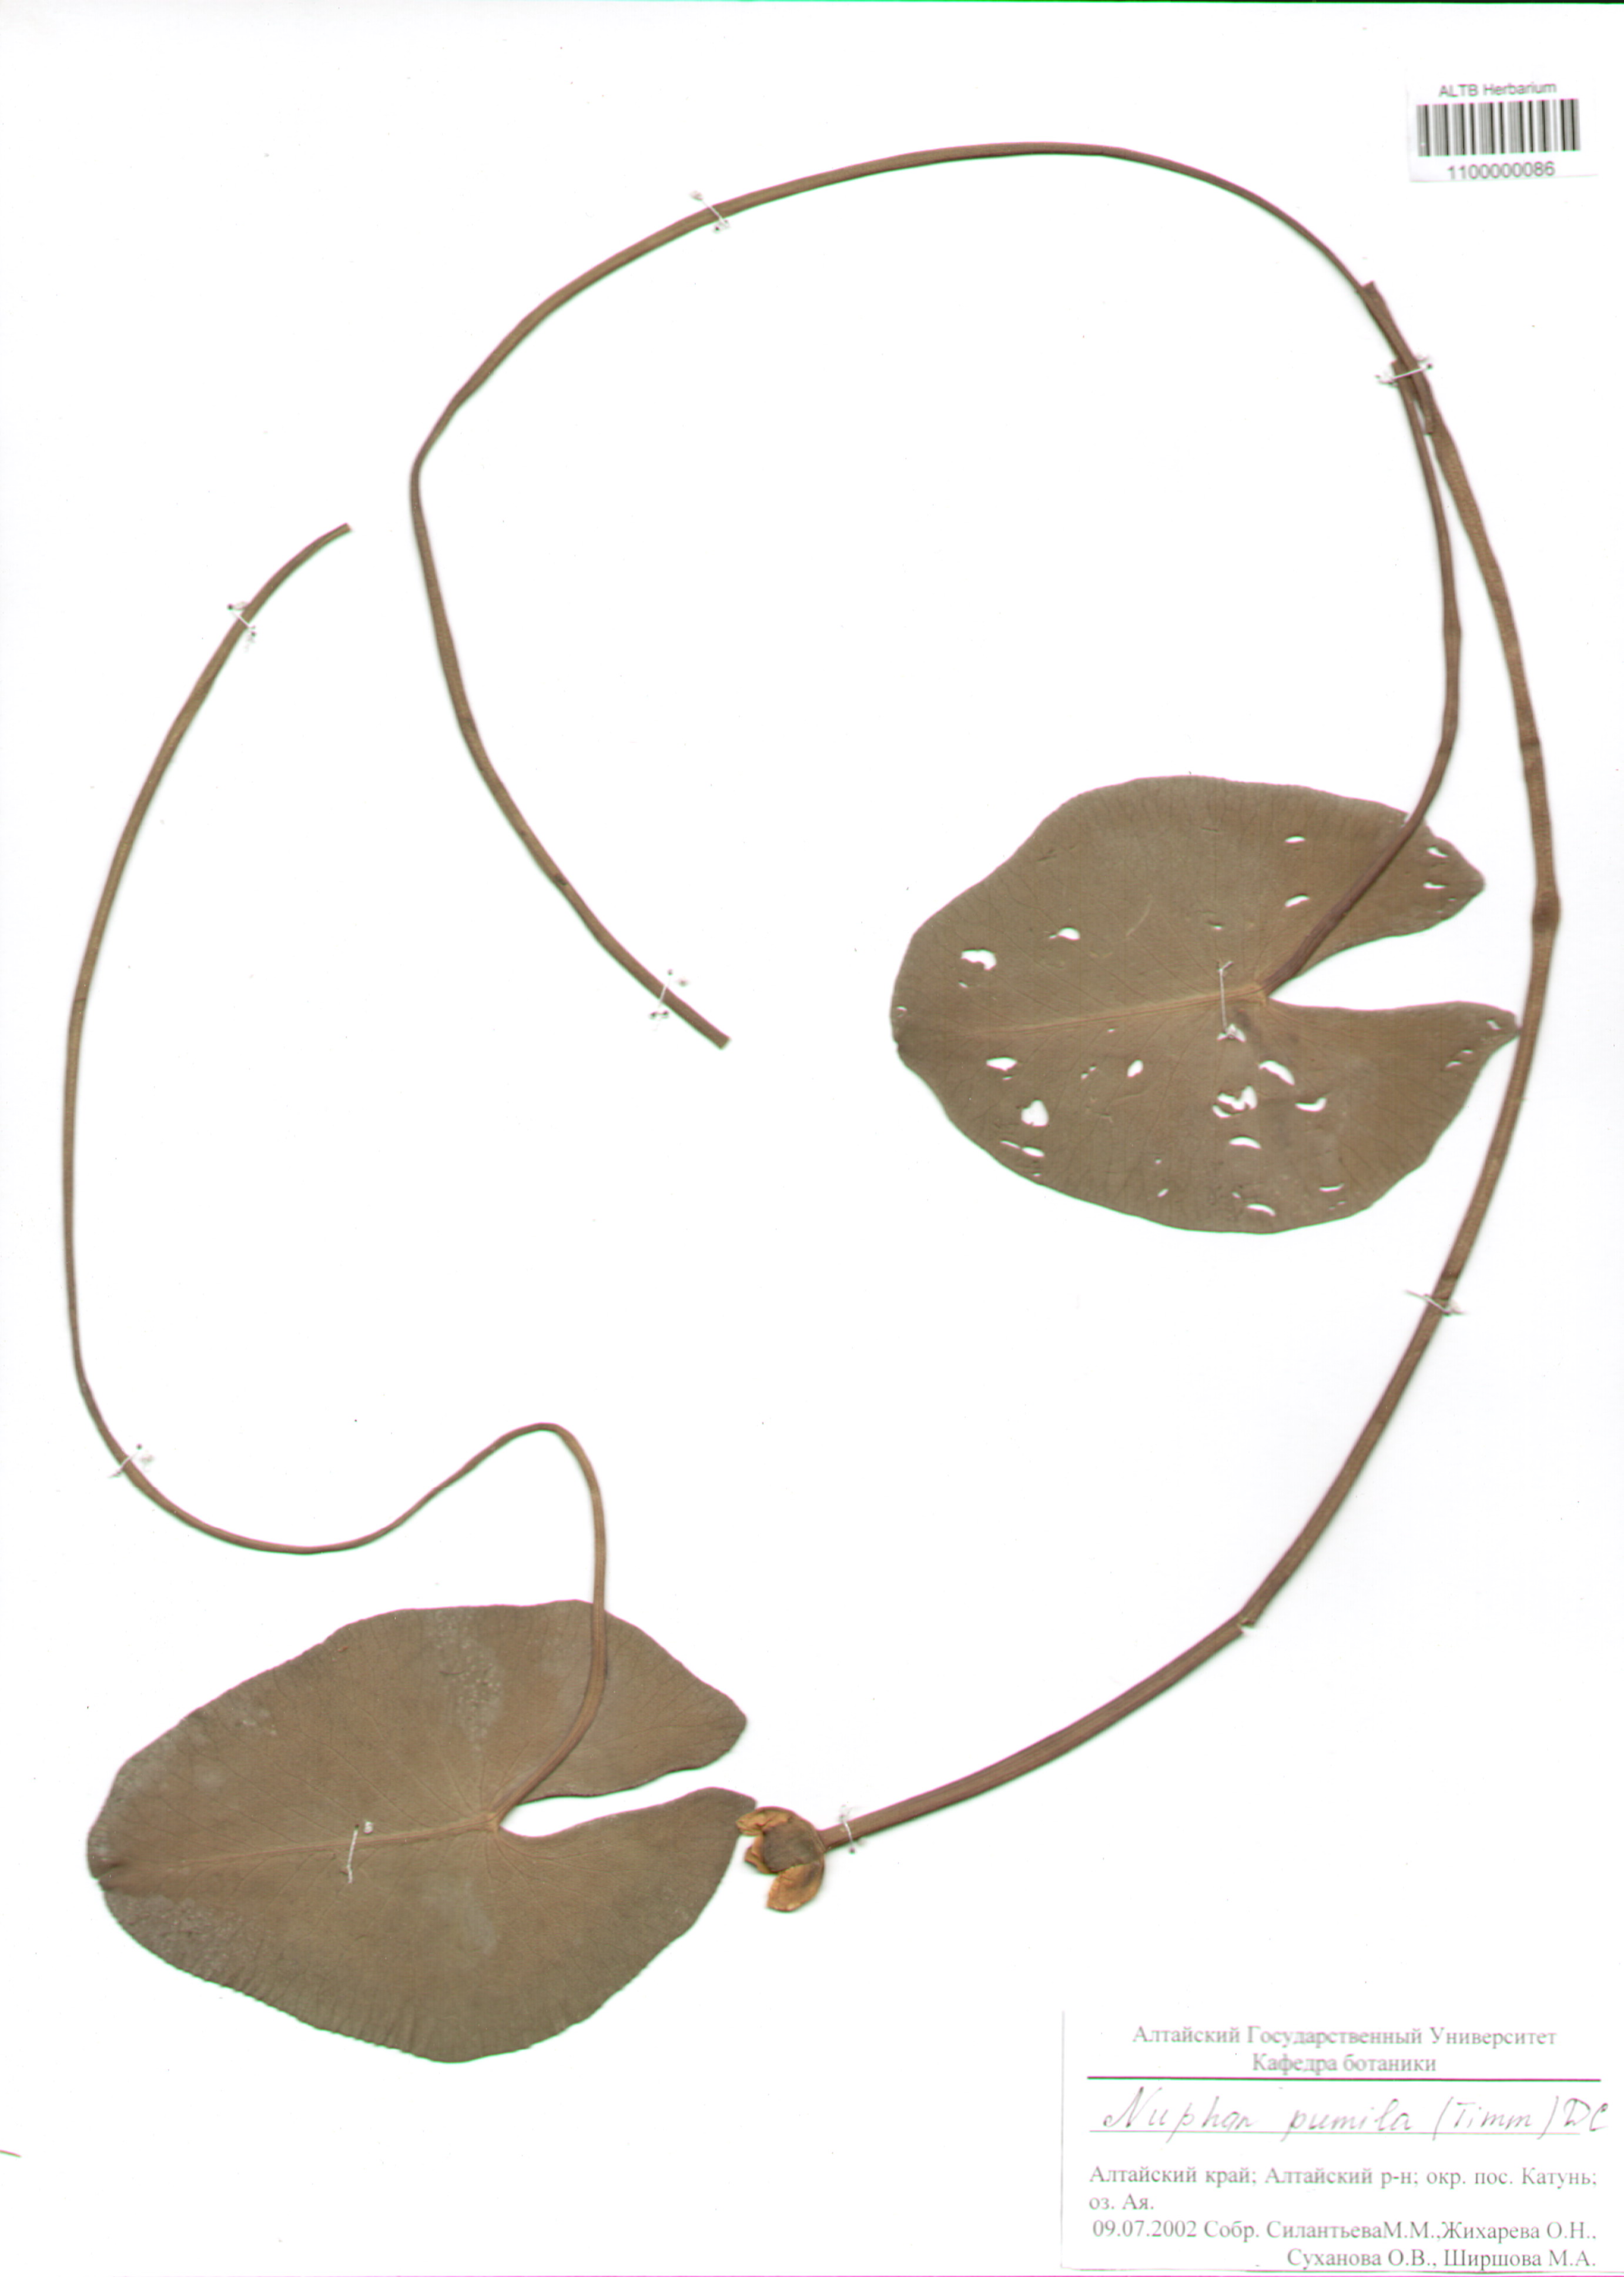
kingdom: Plantae
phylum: Tracheophyta
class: Magnoliopsida
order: Nymphaeales
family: Nymphaeaceae
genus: Nuphar
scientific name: Nuphar pumila
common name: Least water-lily
